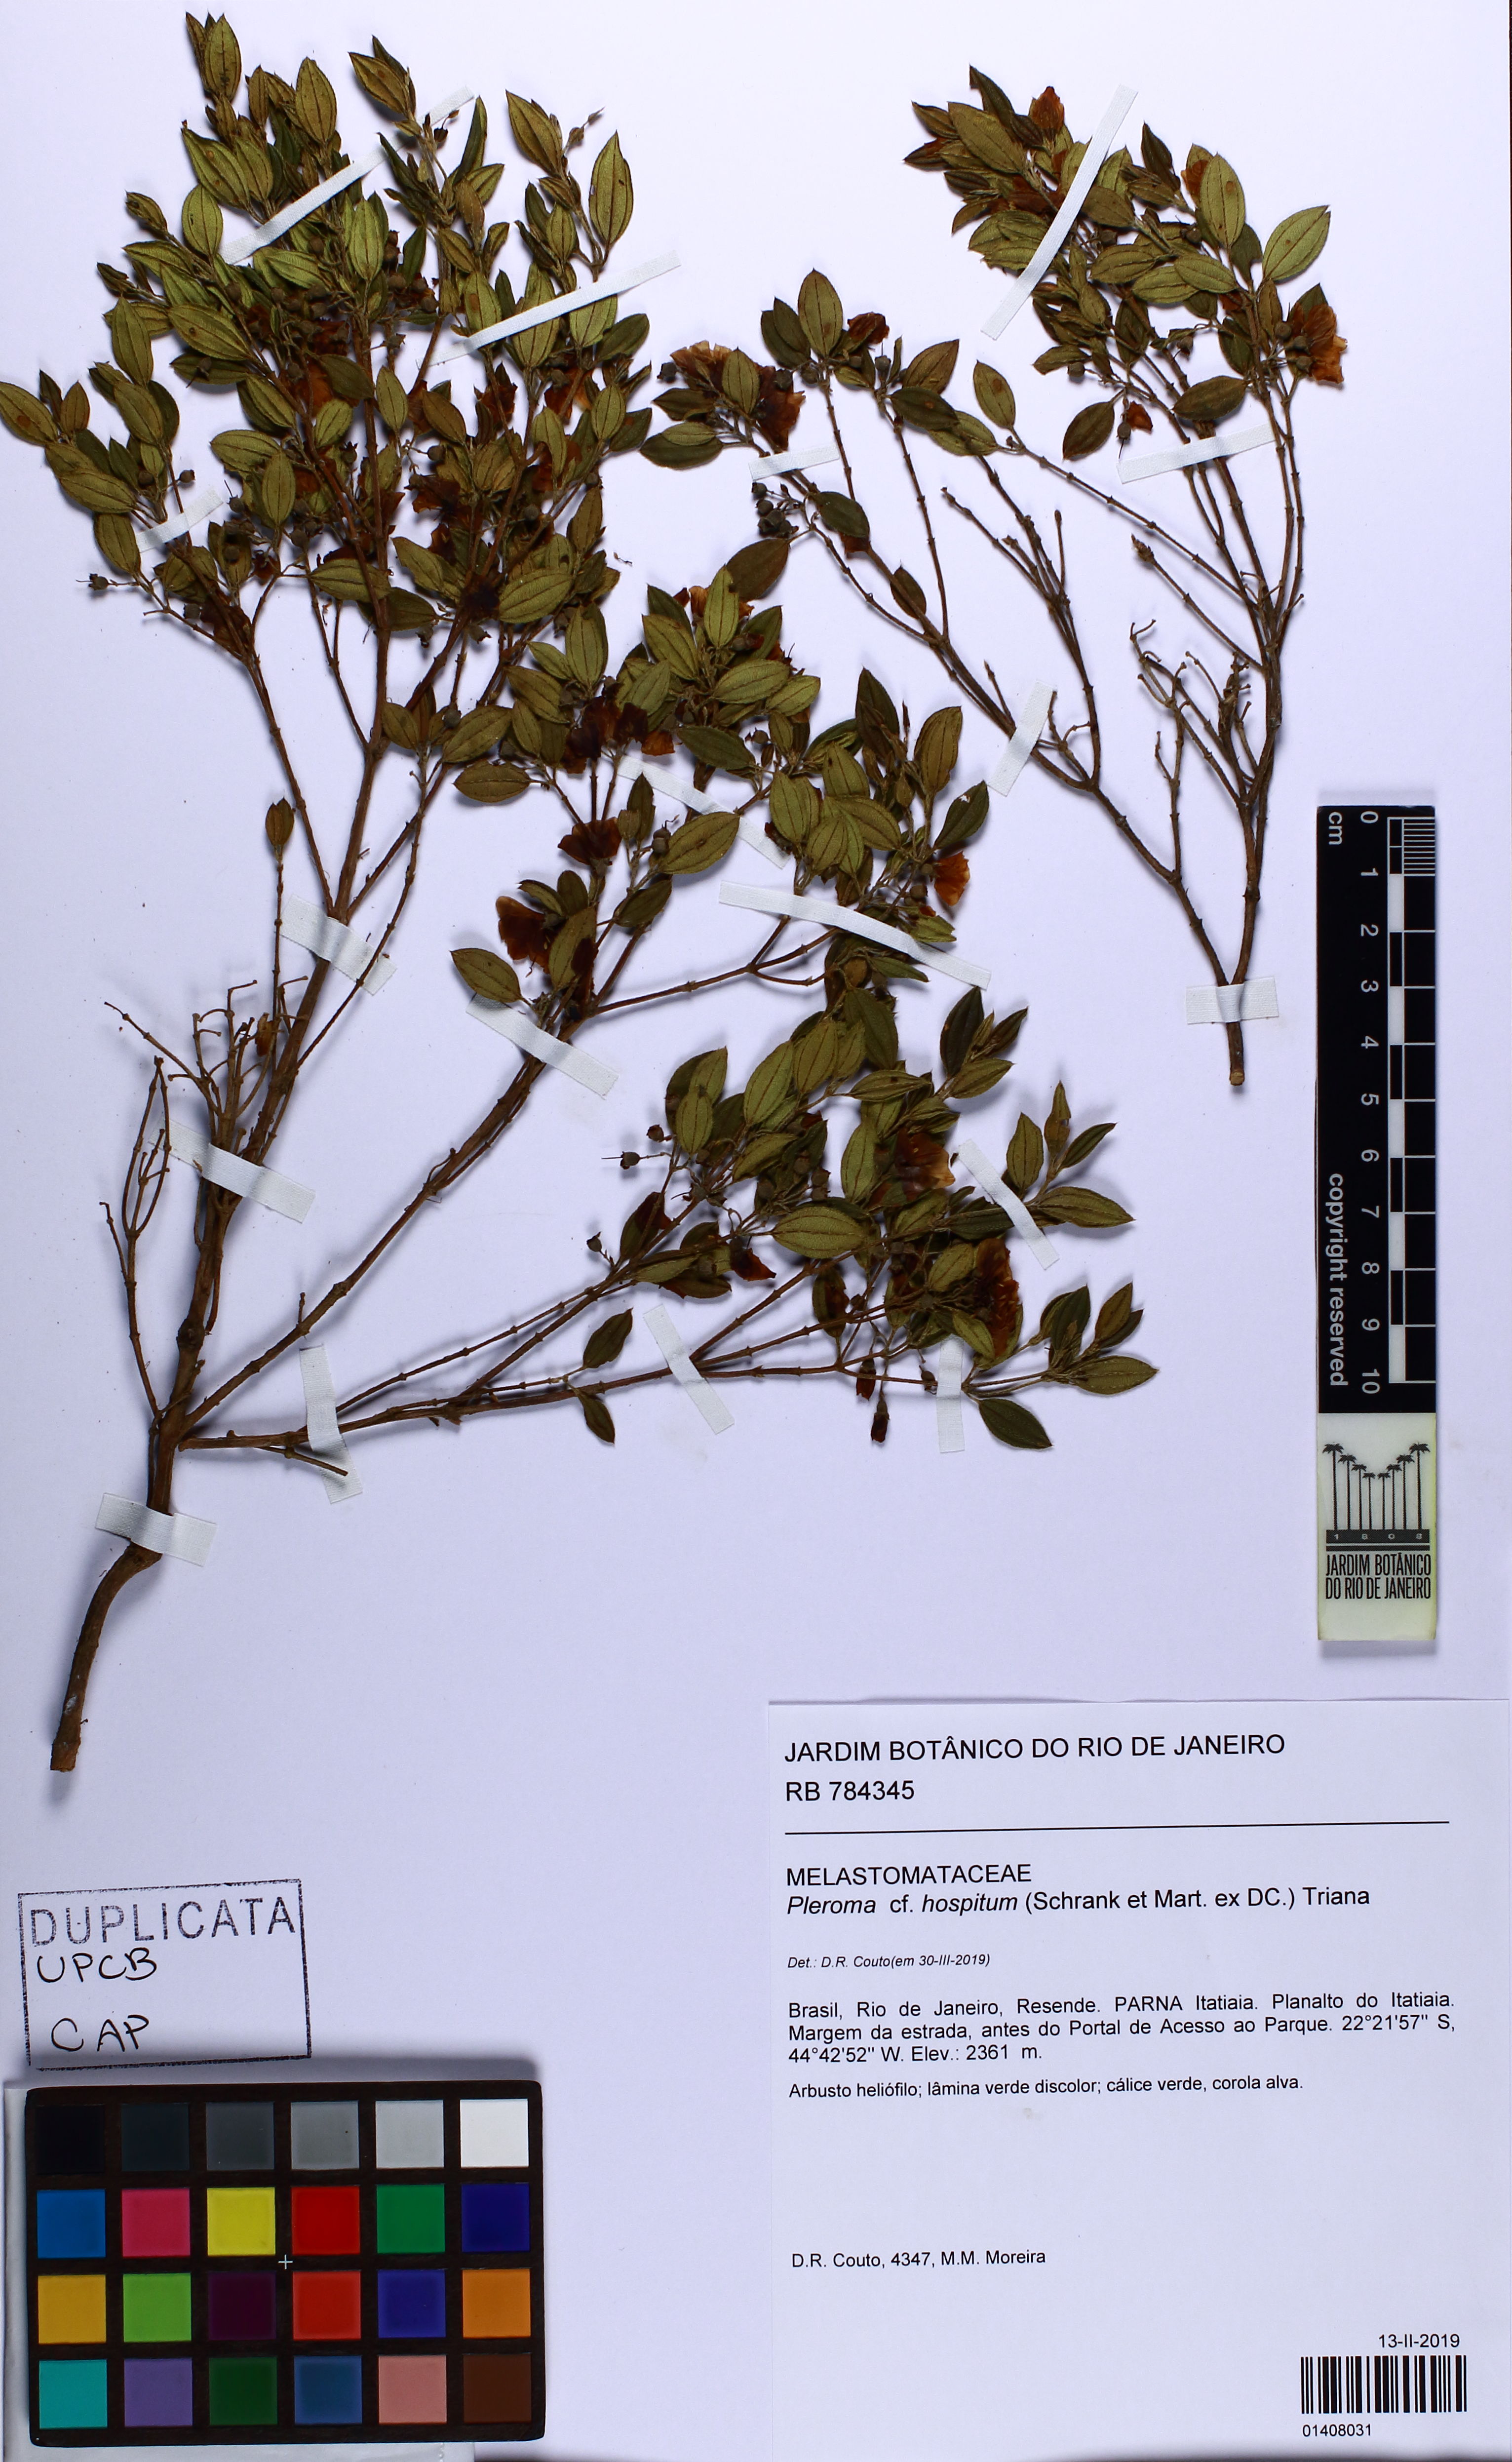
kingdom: Plantae
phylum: Tracheophyta
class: Magnoliopsida
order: Myrtales
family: Melastomataceae
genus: Pleroma
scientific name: Pleroma hospitum
